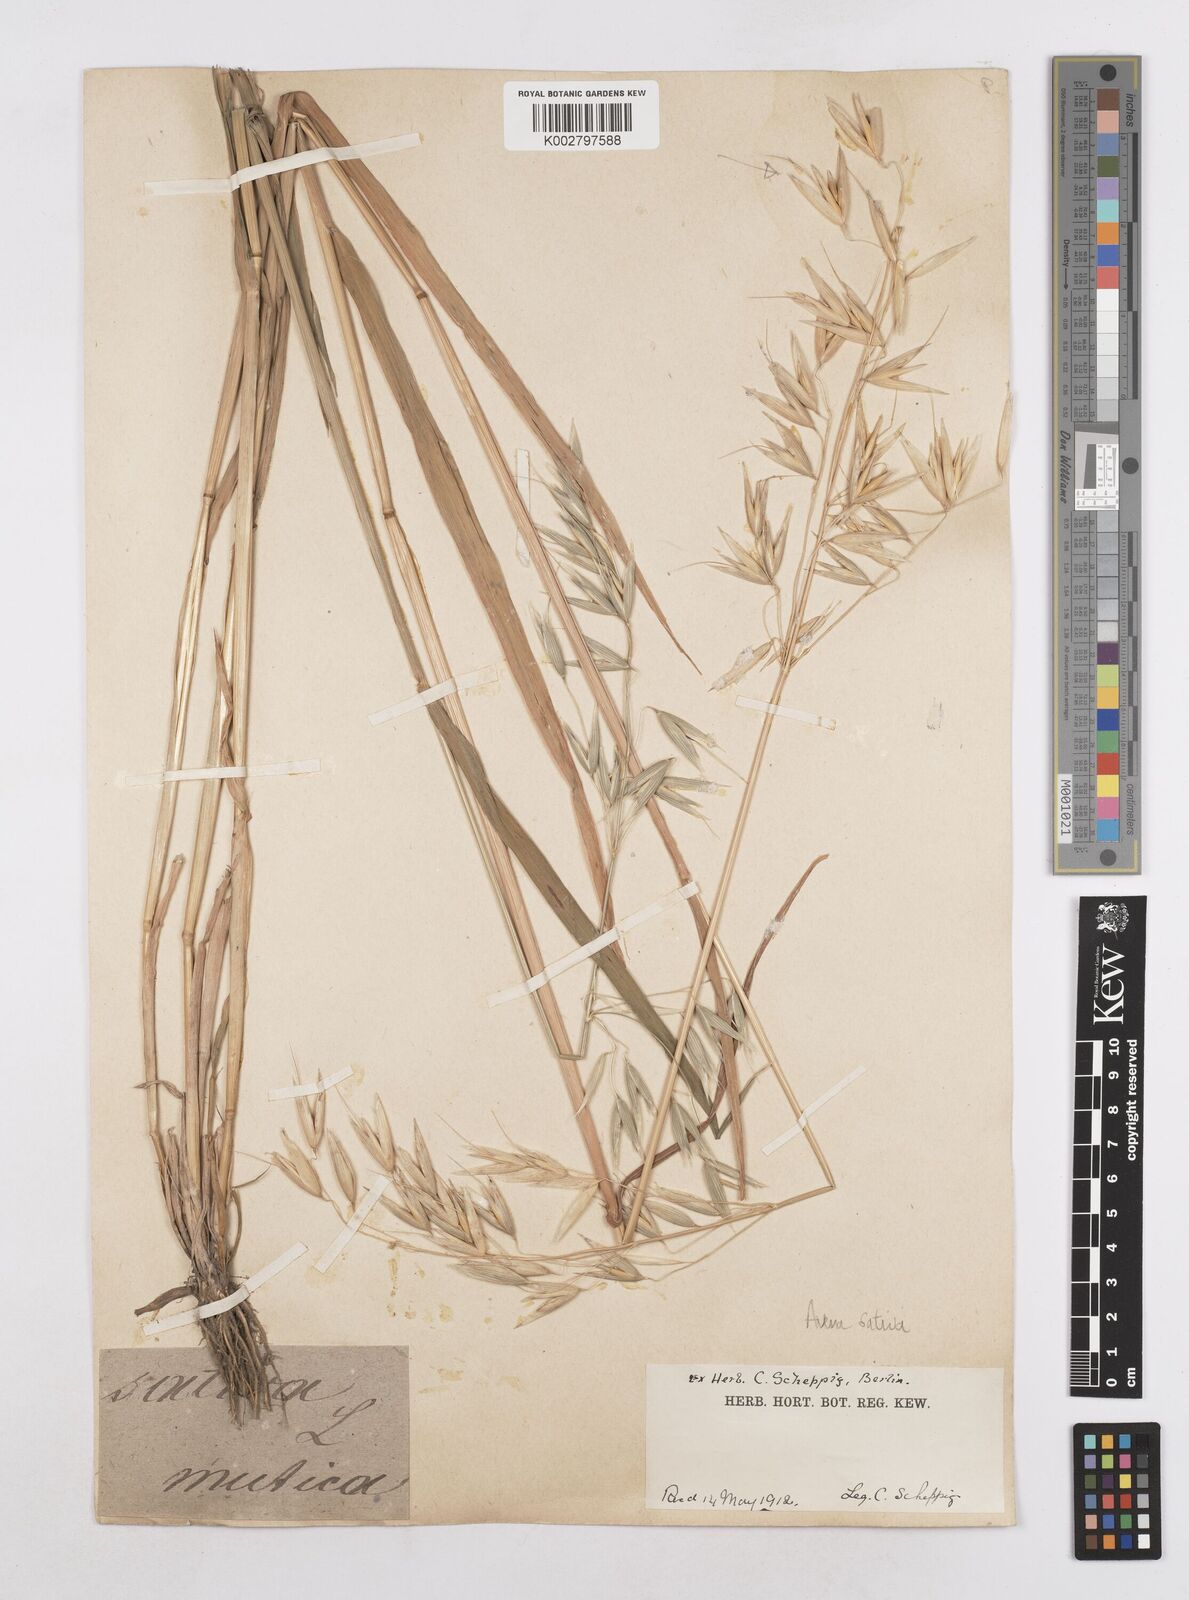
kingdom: Plantae
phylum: Tracheophyta
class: Liliopsida
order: Poales
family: Poaceae
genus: Avena
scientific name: Avena sativa
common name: Oat
